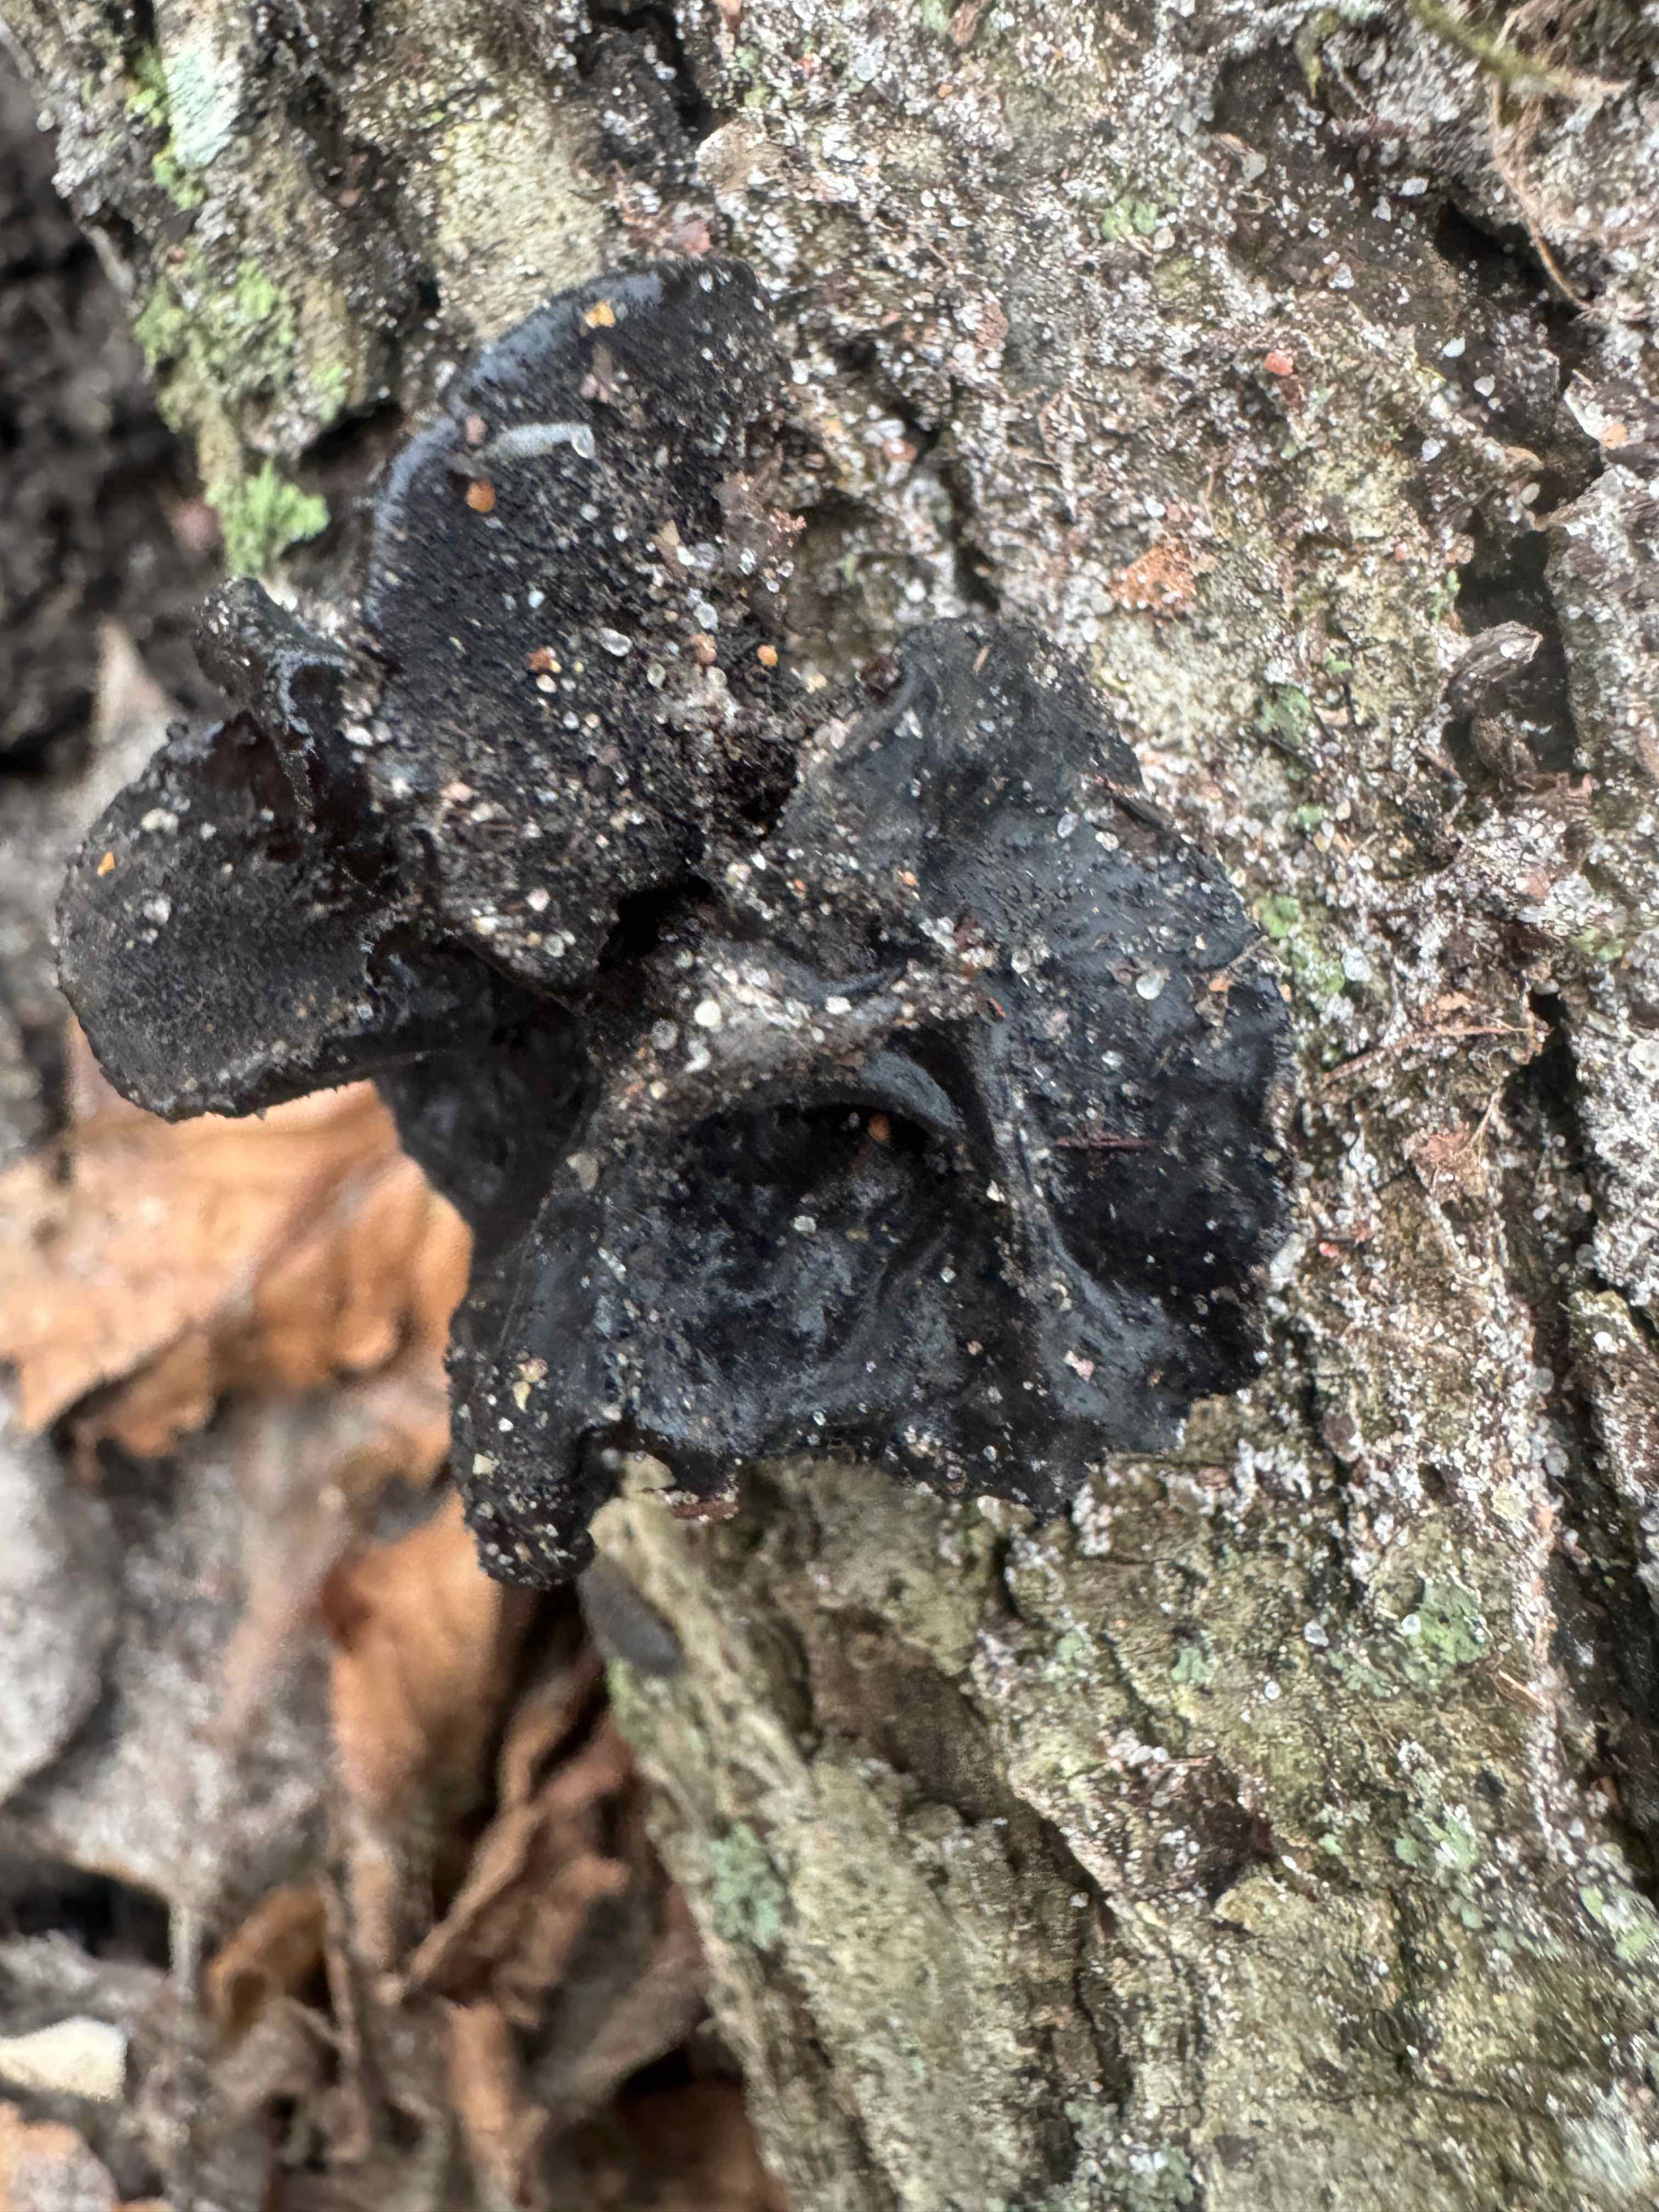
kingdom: Fungi
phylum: Basidiomycota
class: Agaricomycetes
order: Auriculariales
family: Auriculariaceae
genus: Exidia
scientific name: Exidia glandulosa
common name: ege-bævretop
